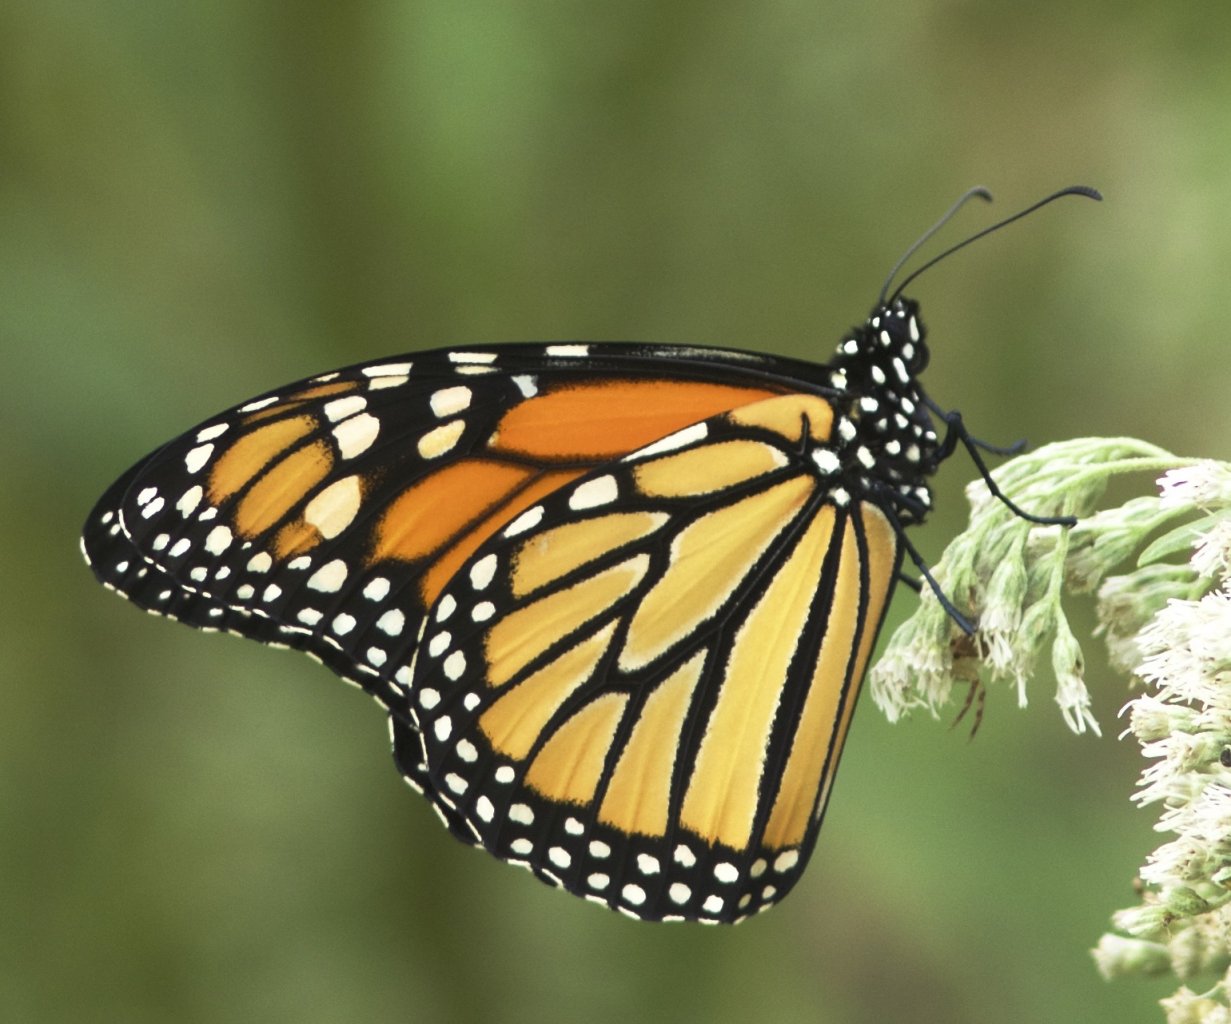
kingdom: Animalia
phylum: Arthropoda
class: Insecta
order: Lepidoptera
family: Nymphalidae
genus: Danaus
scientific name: Danaus plexippus
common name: Monarch
